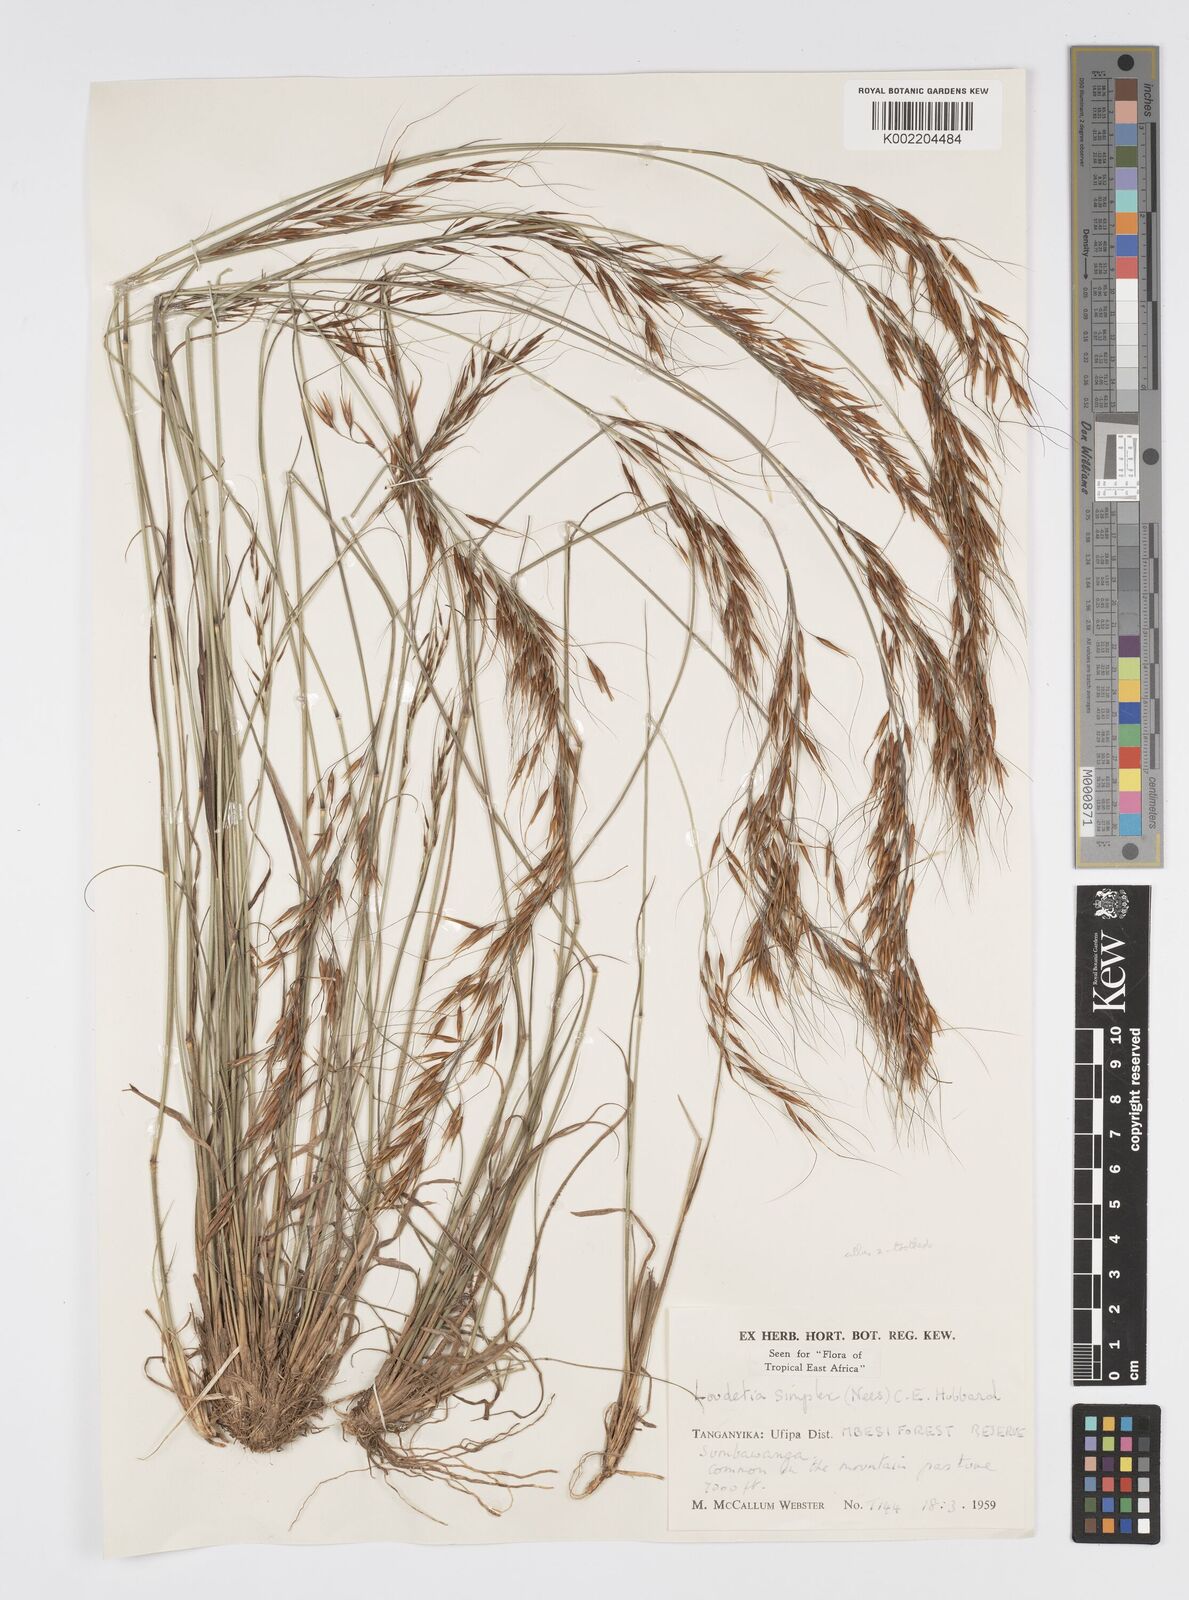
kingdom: Plantae
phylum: Tracheophyta
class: Liliopsida
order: Poales
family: Poaceae
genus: Loudetia
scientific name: Loudetia simplex
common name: Common russet grass
